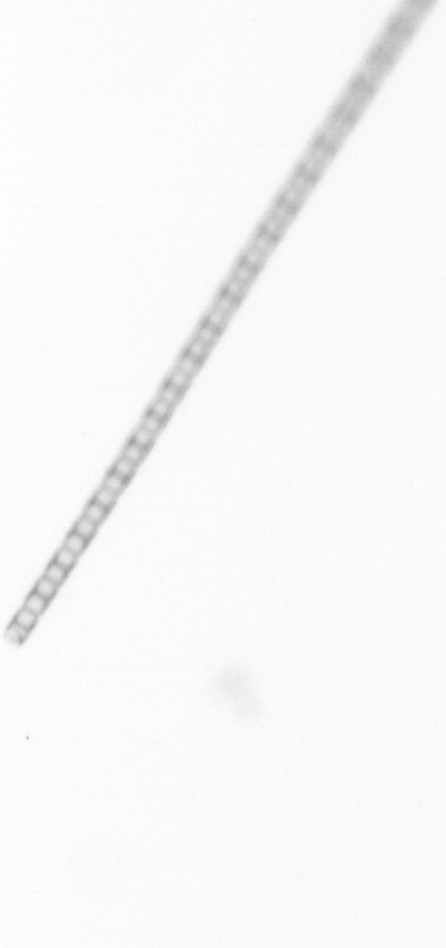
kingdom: Chromista
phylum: Ochrophyta
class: Bacillariophyceae
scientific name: Bacillariophyceae
